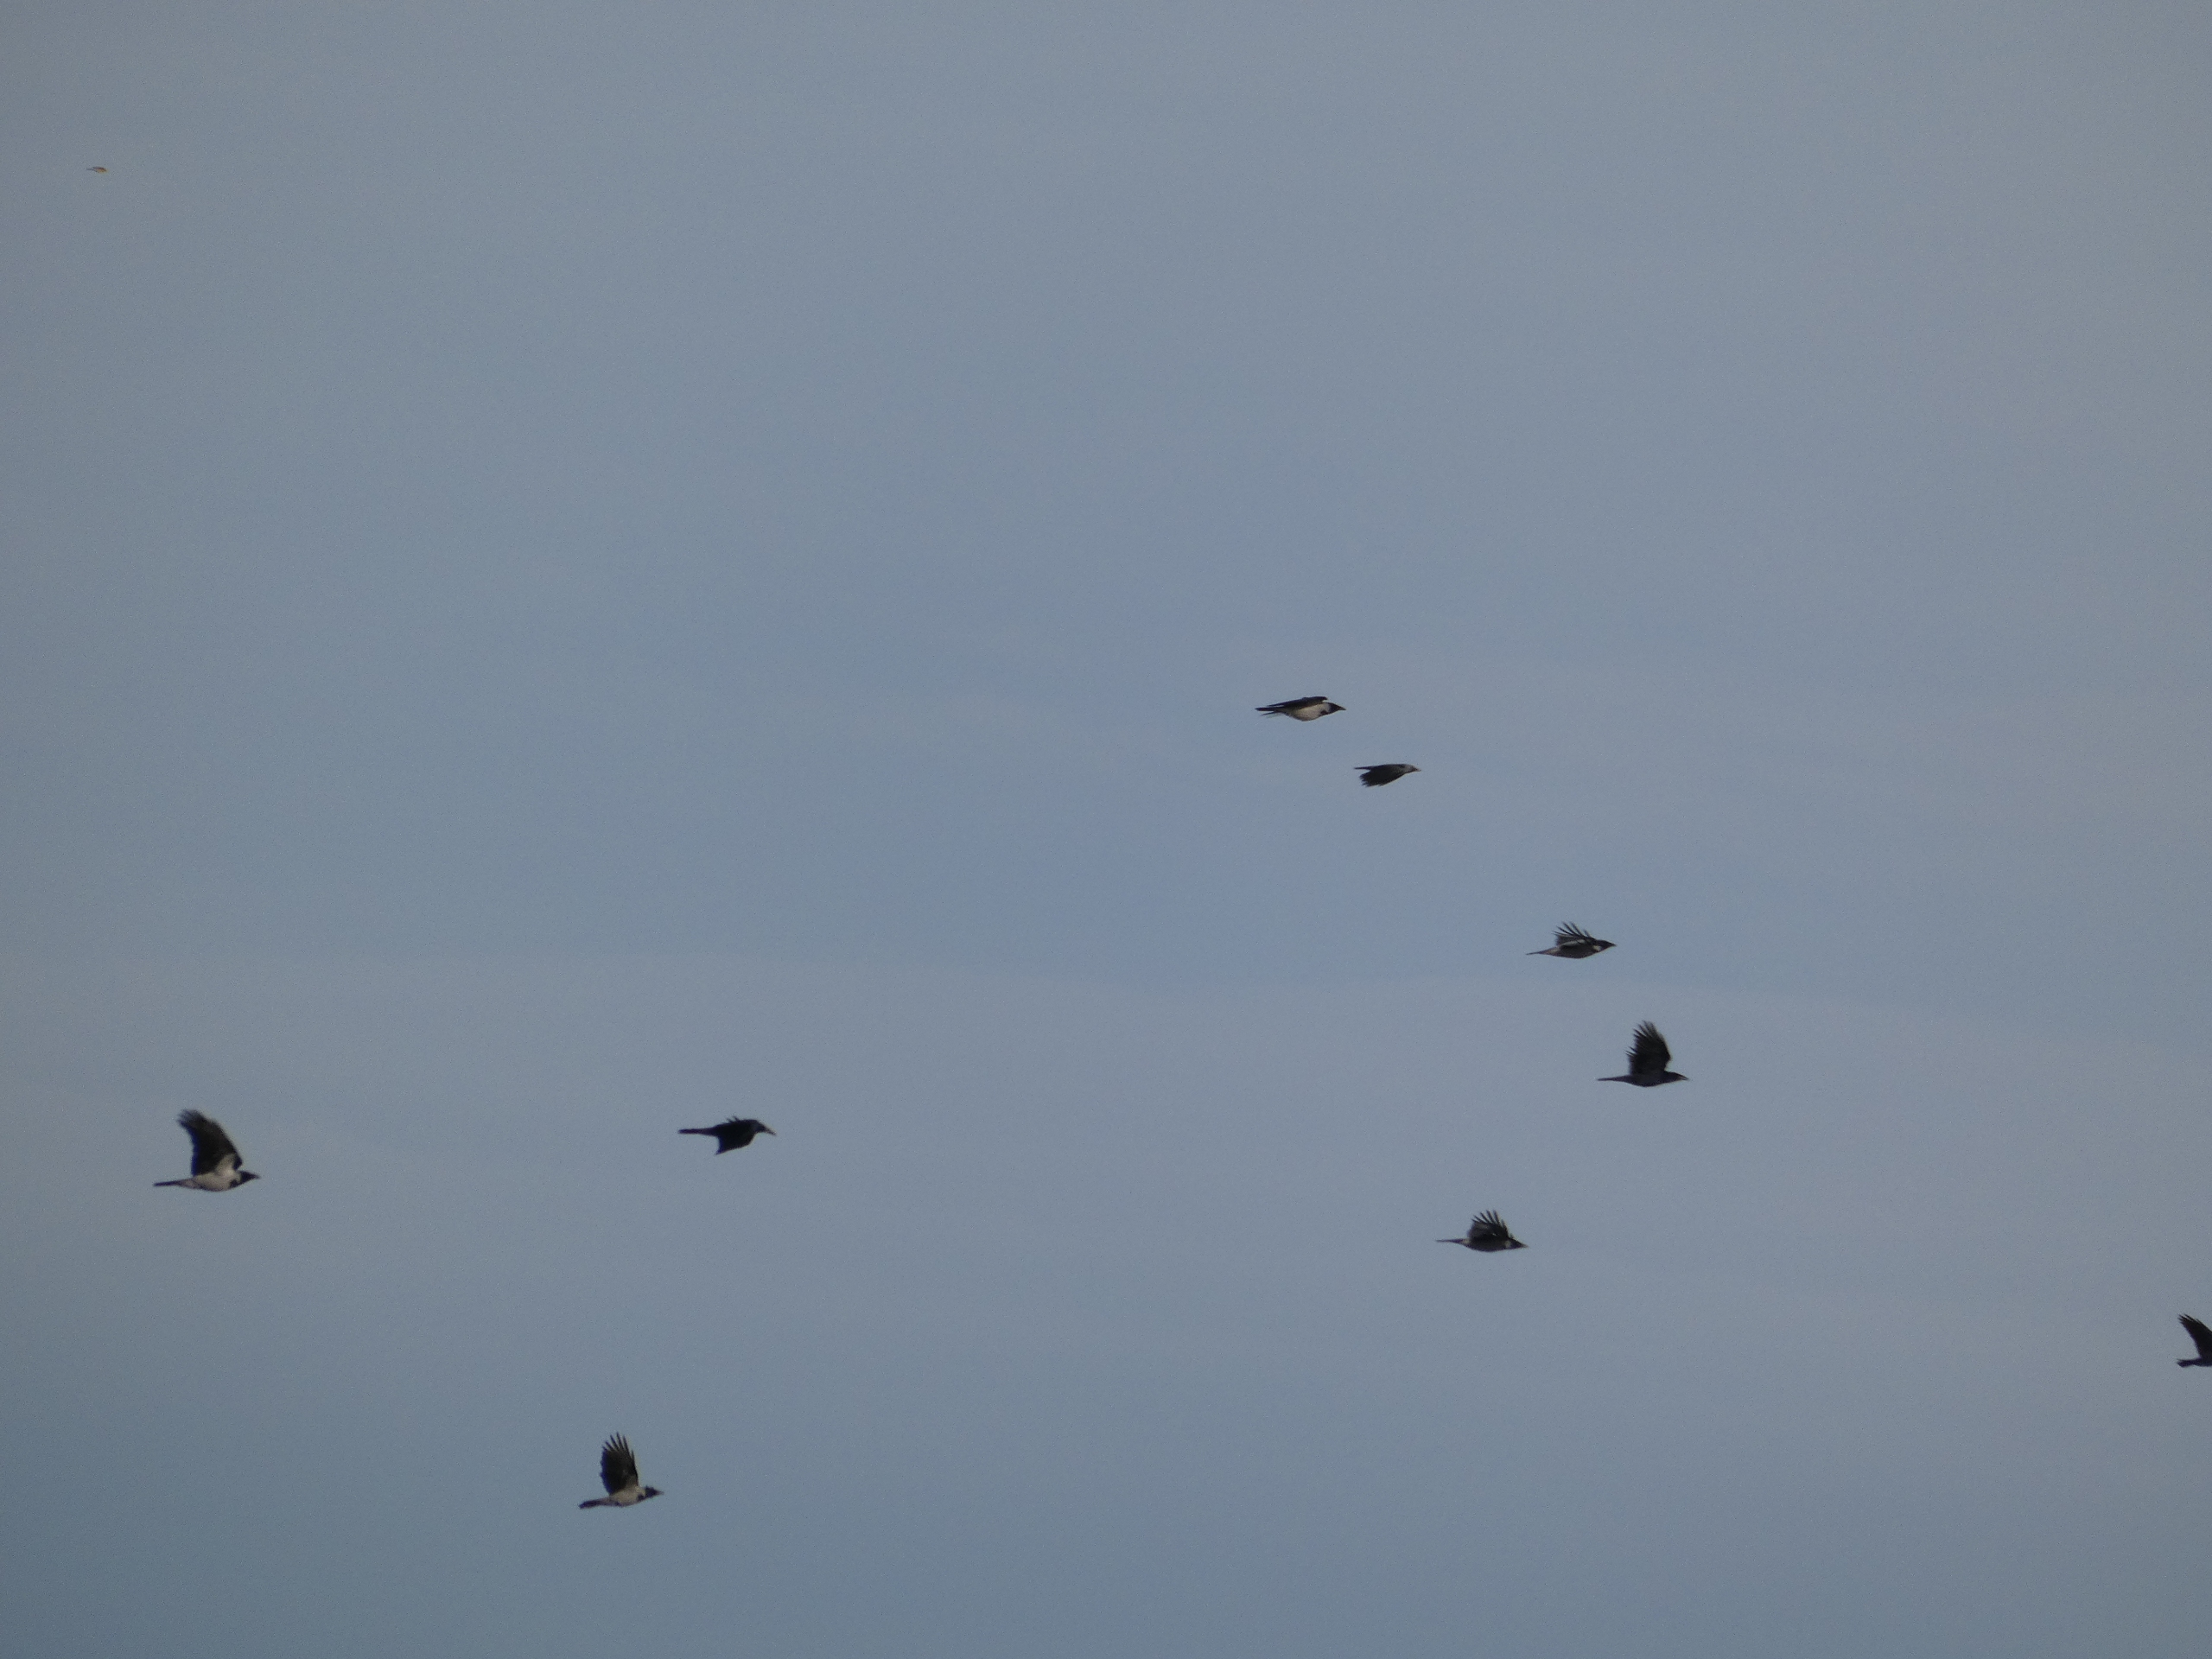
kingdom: Animalia
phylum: Chordata
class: Aves
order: Passeriformes
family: Corvidae
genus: Corvus
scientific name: Corvus cornix
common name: Gråkrage
